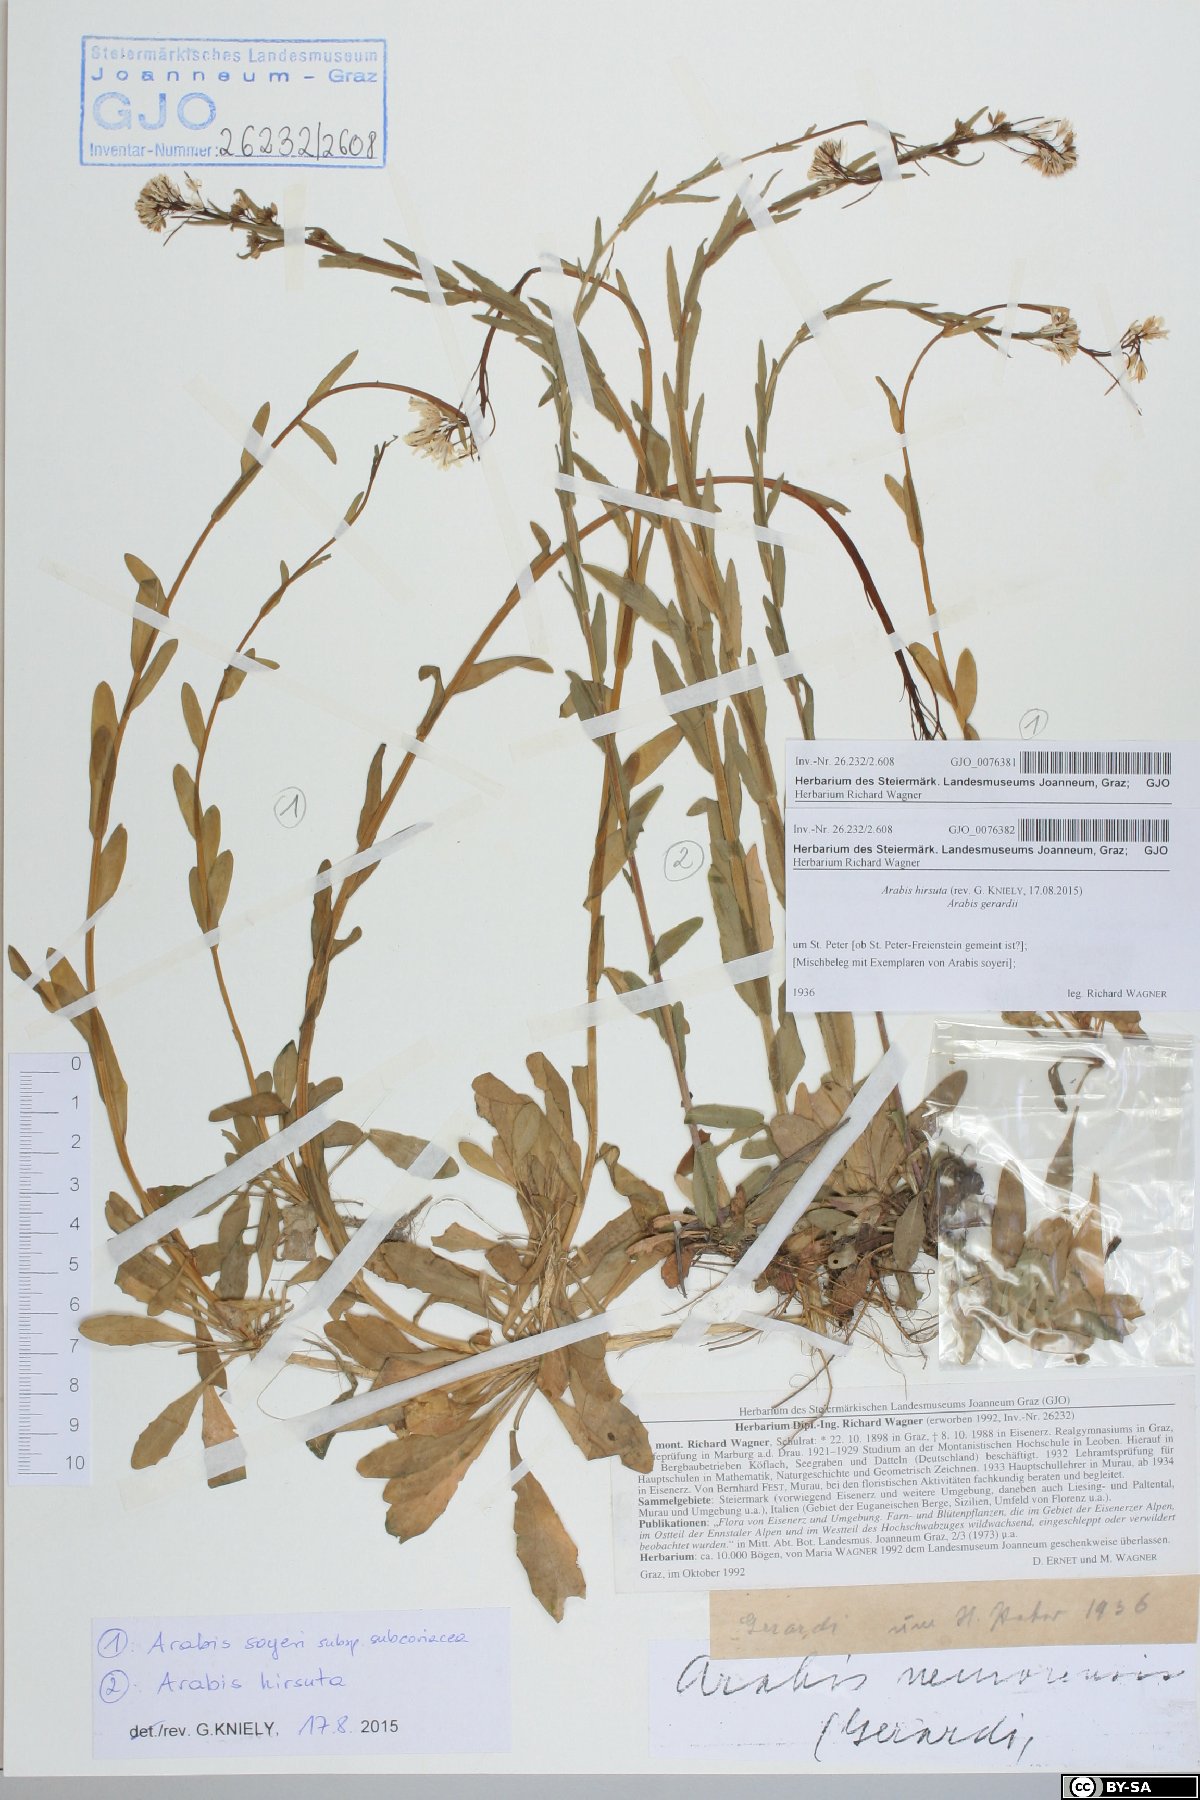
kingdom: Plantae
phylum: Tracheophyta
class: Magnoliopsida
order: Brassicales
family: Brassicaceae
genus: Arabis
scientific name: Arabis soyeri
